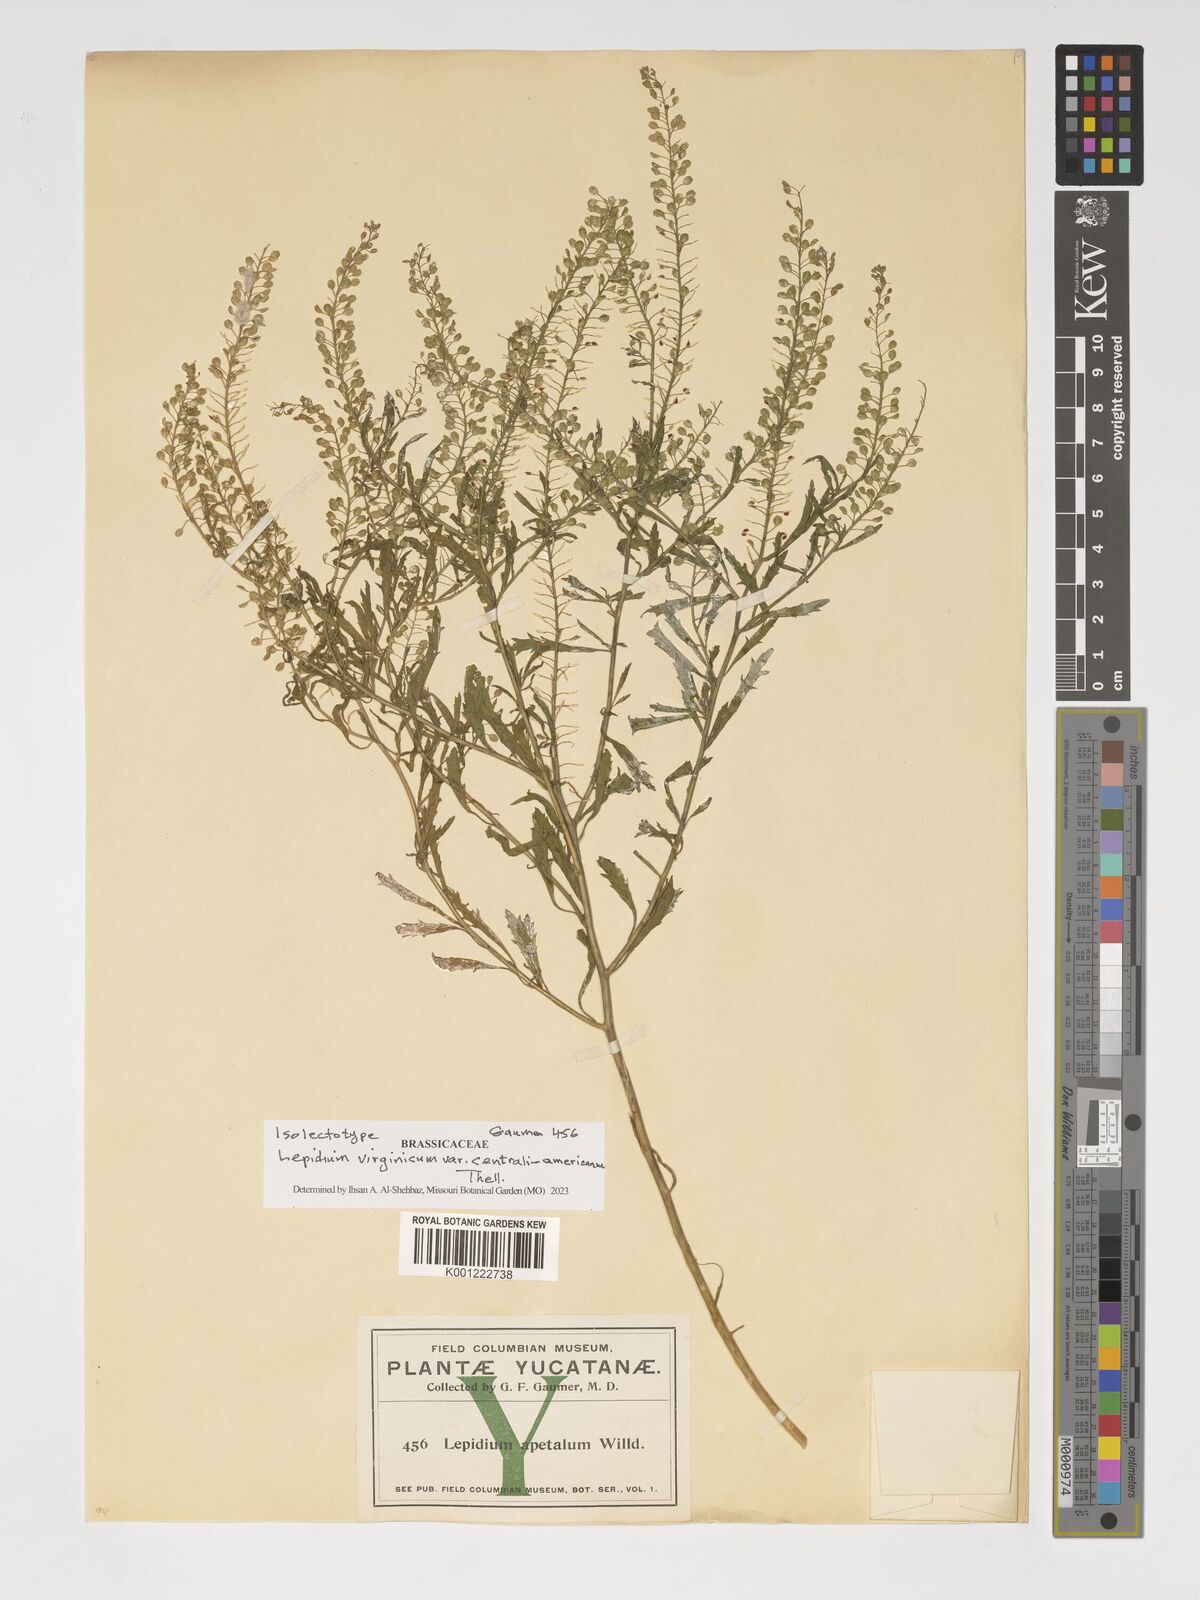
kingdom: Plantae
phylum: Tracheophyta
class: Magnoliopsida
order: Brassicales
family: Brassicaceae
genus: Lepidium
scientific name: Lepidium costaricense
